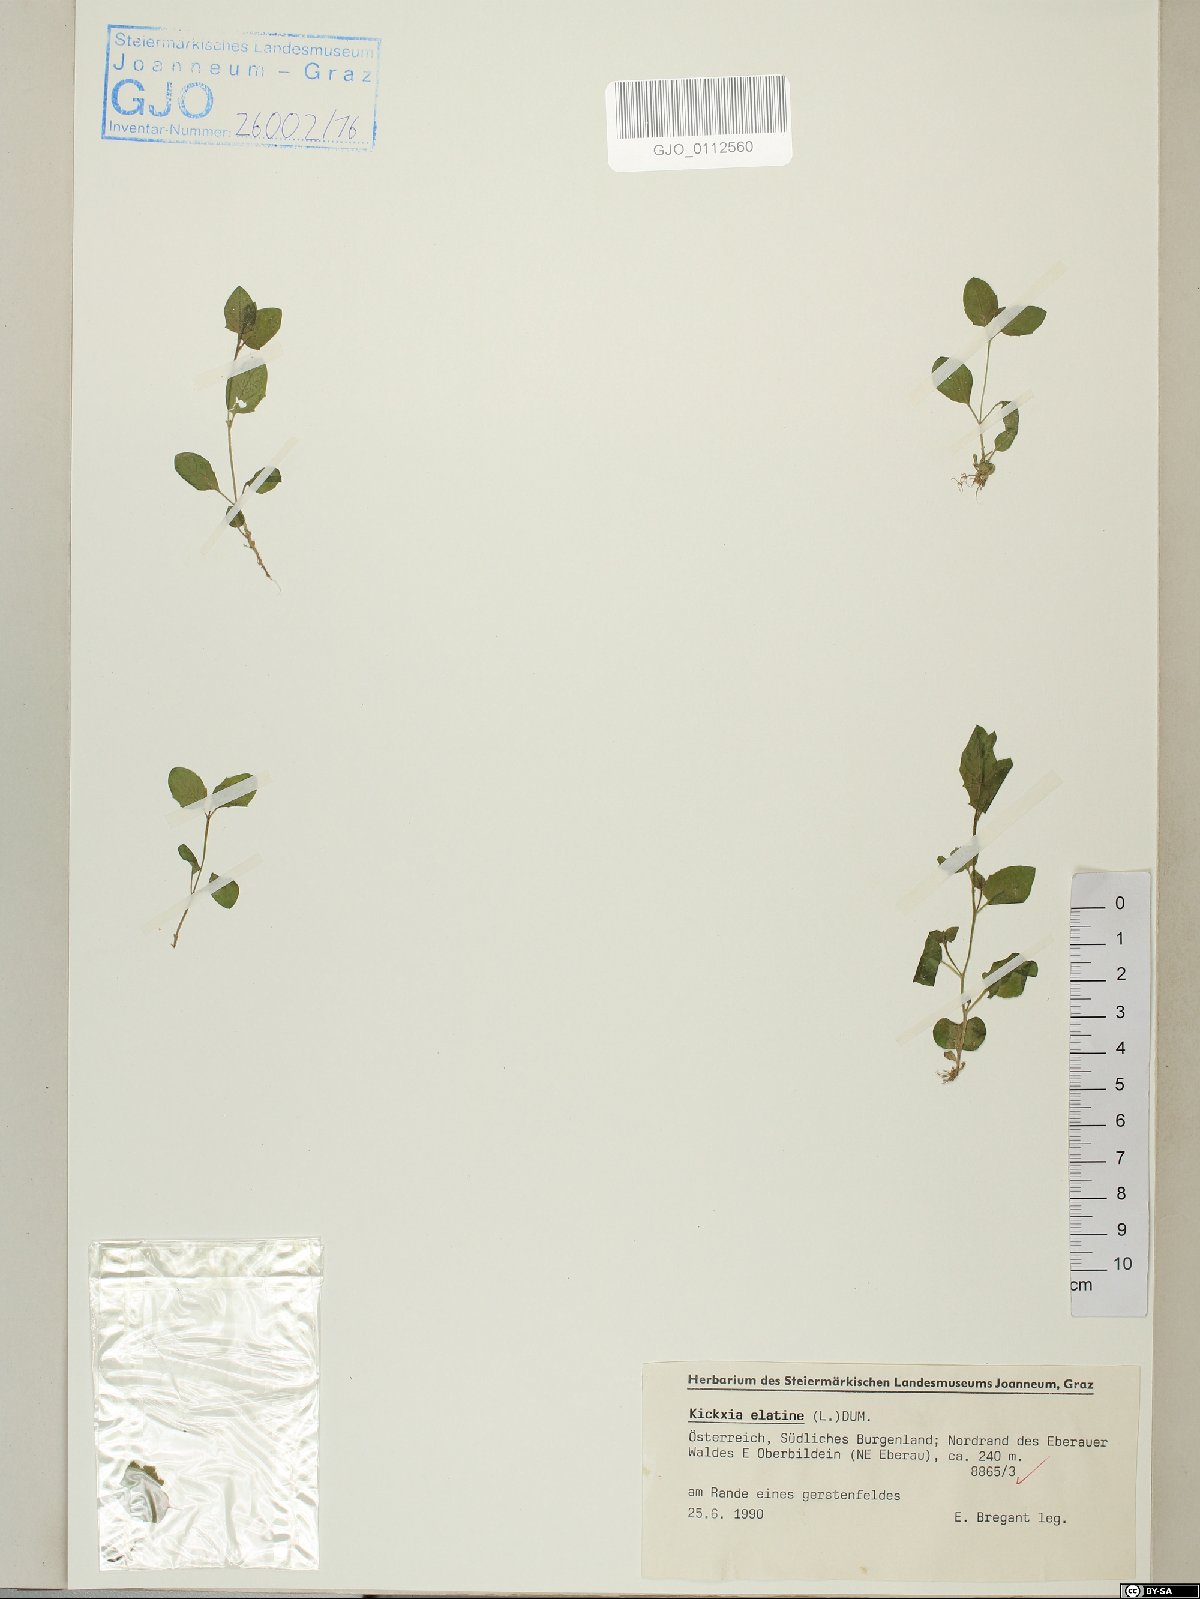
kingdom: Plantae
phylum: Tracheophyta
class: Magnoliopsida
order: Lamiales
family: Plantaginaceae
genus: Kickxia
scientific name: Kickxia elatine
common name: Sharp-leaved fluellen
